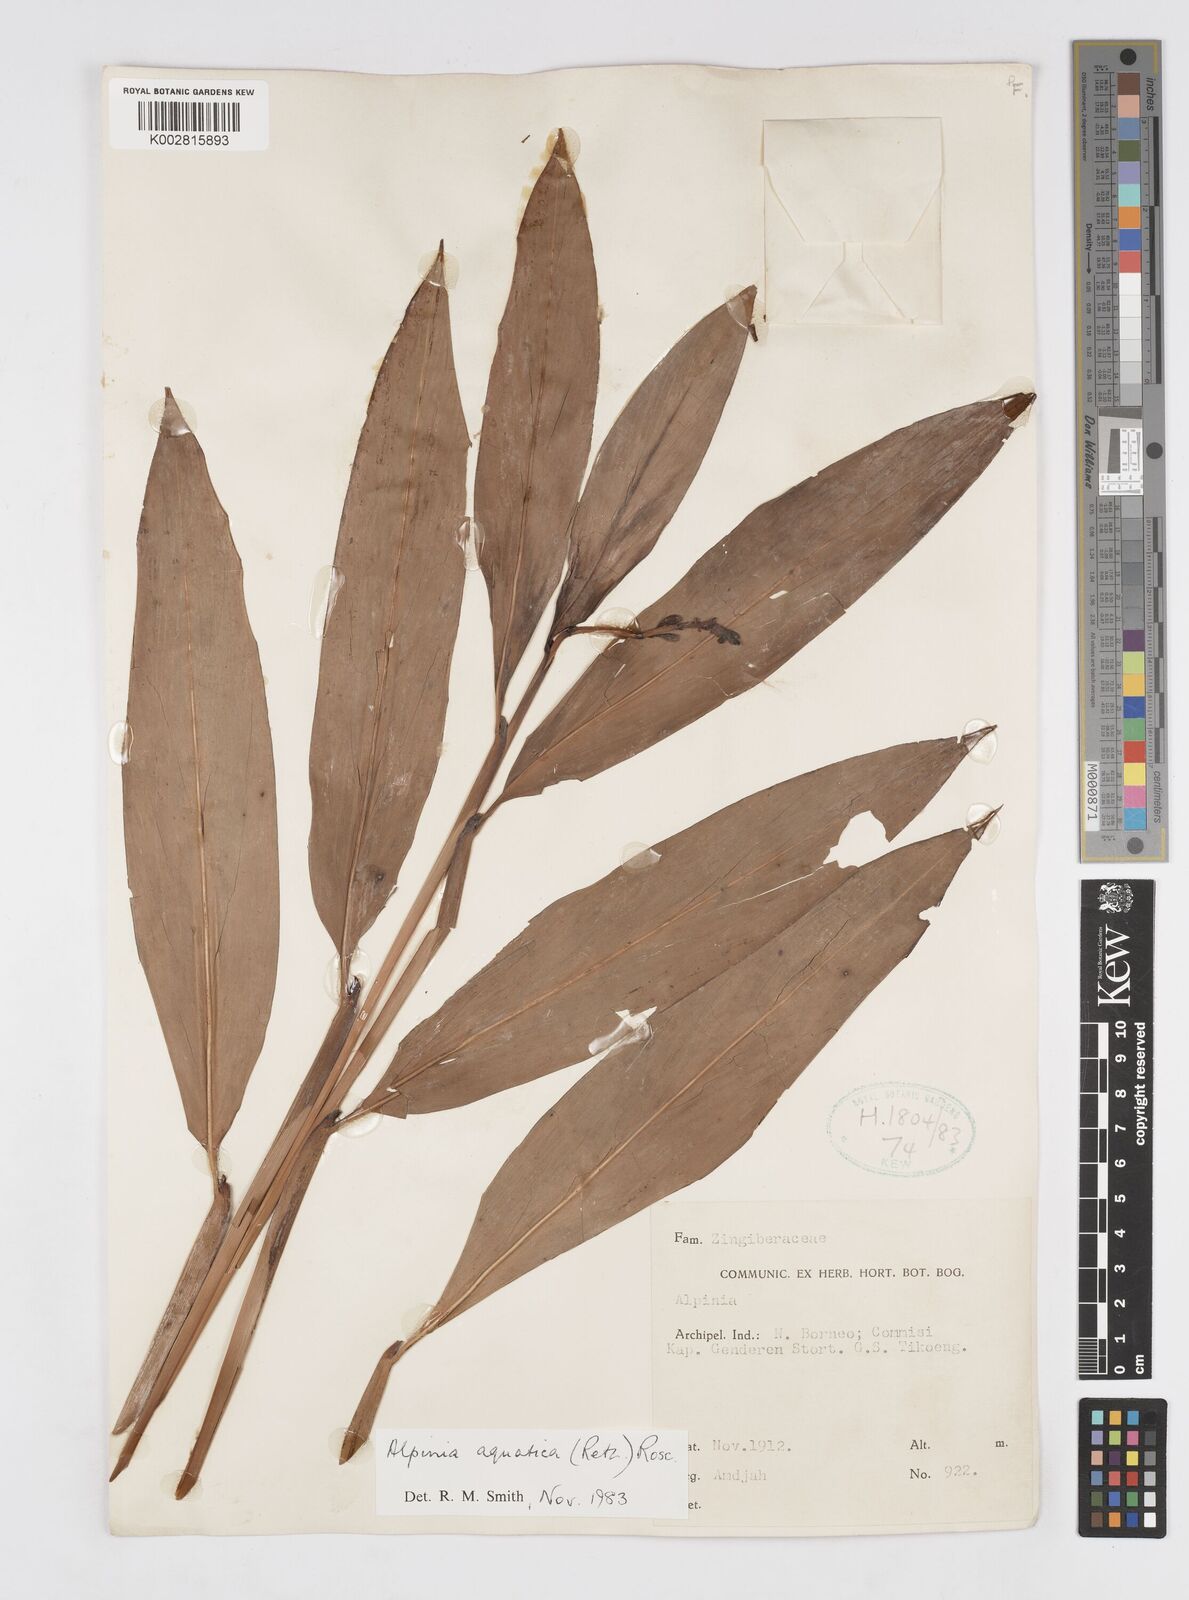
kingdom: Plantae
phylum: Tracheophyta
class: Liliopsida
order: Zingiberales
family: Zingiberaceae
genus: Alpinia
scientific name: Alpinia aquatica
